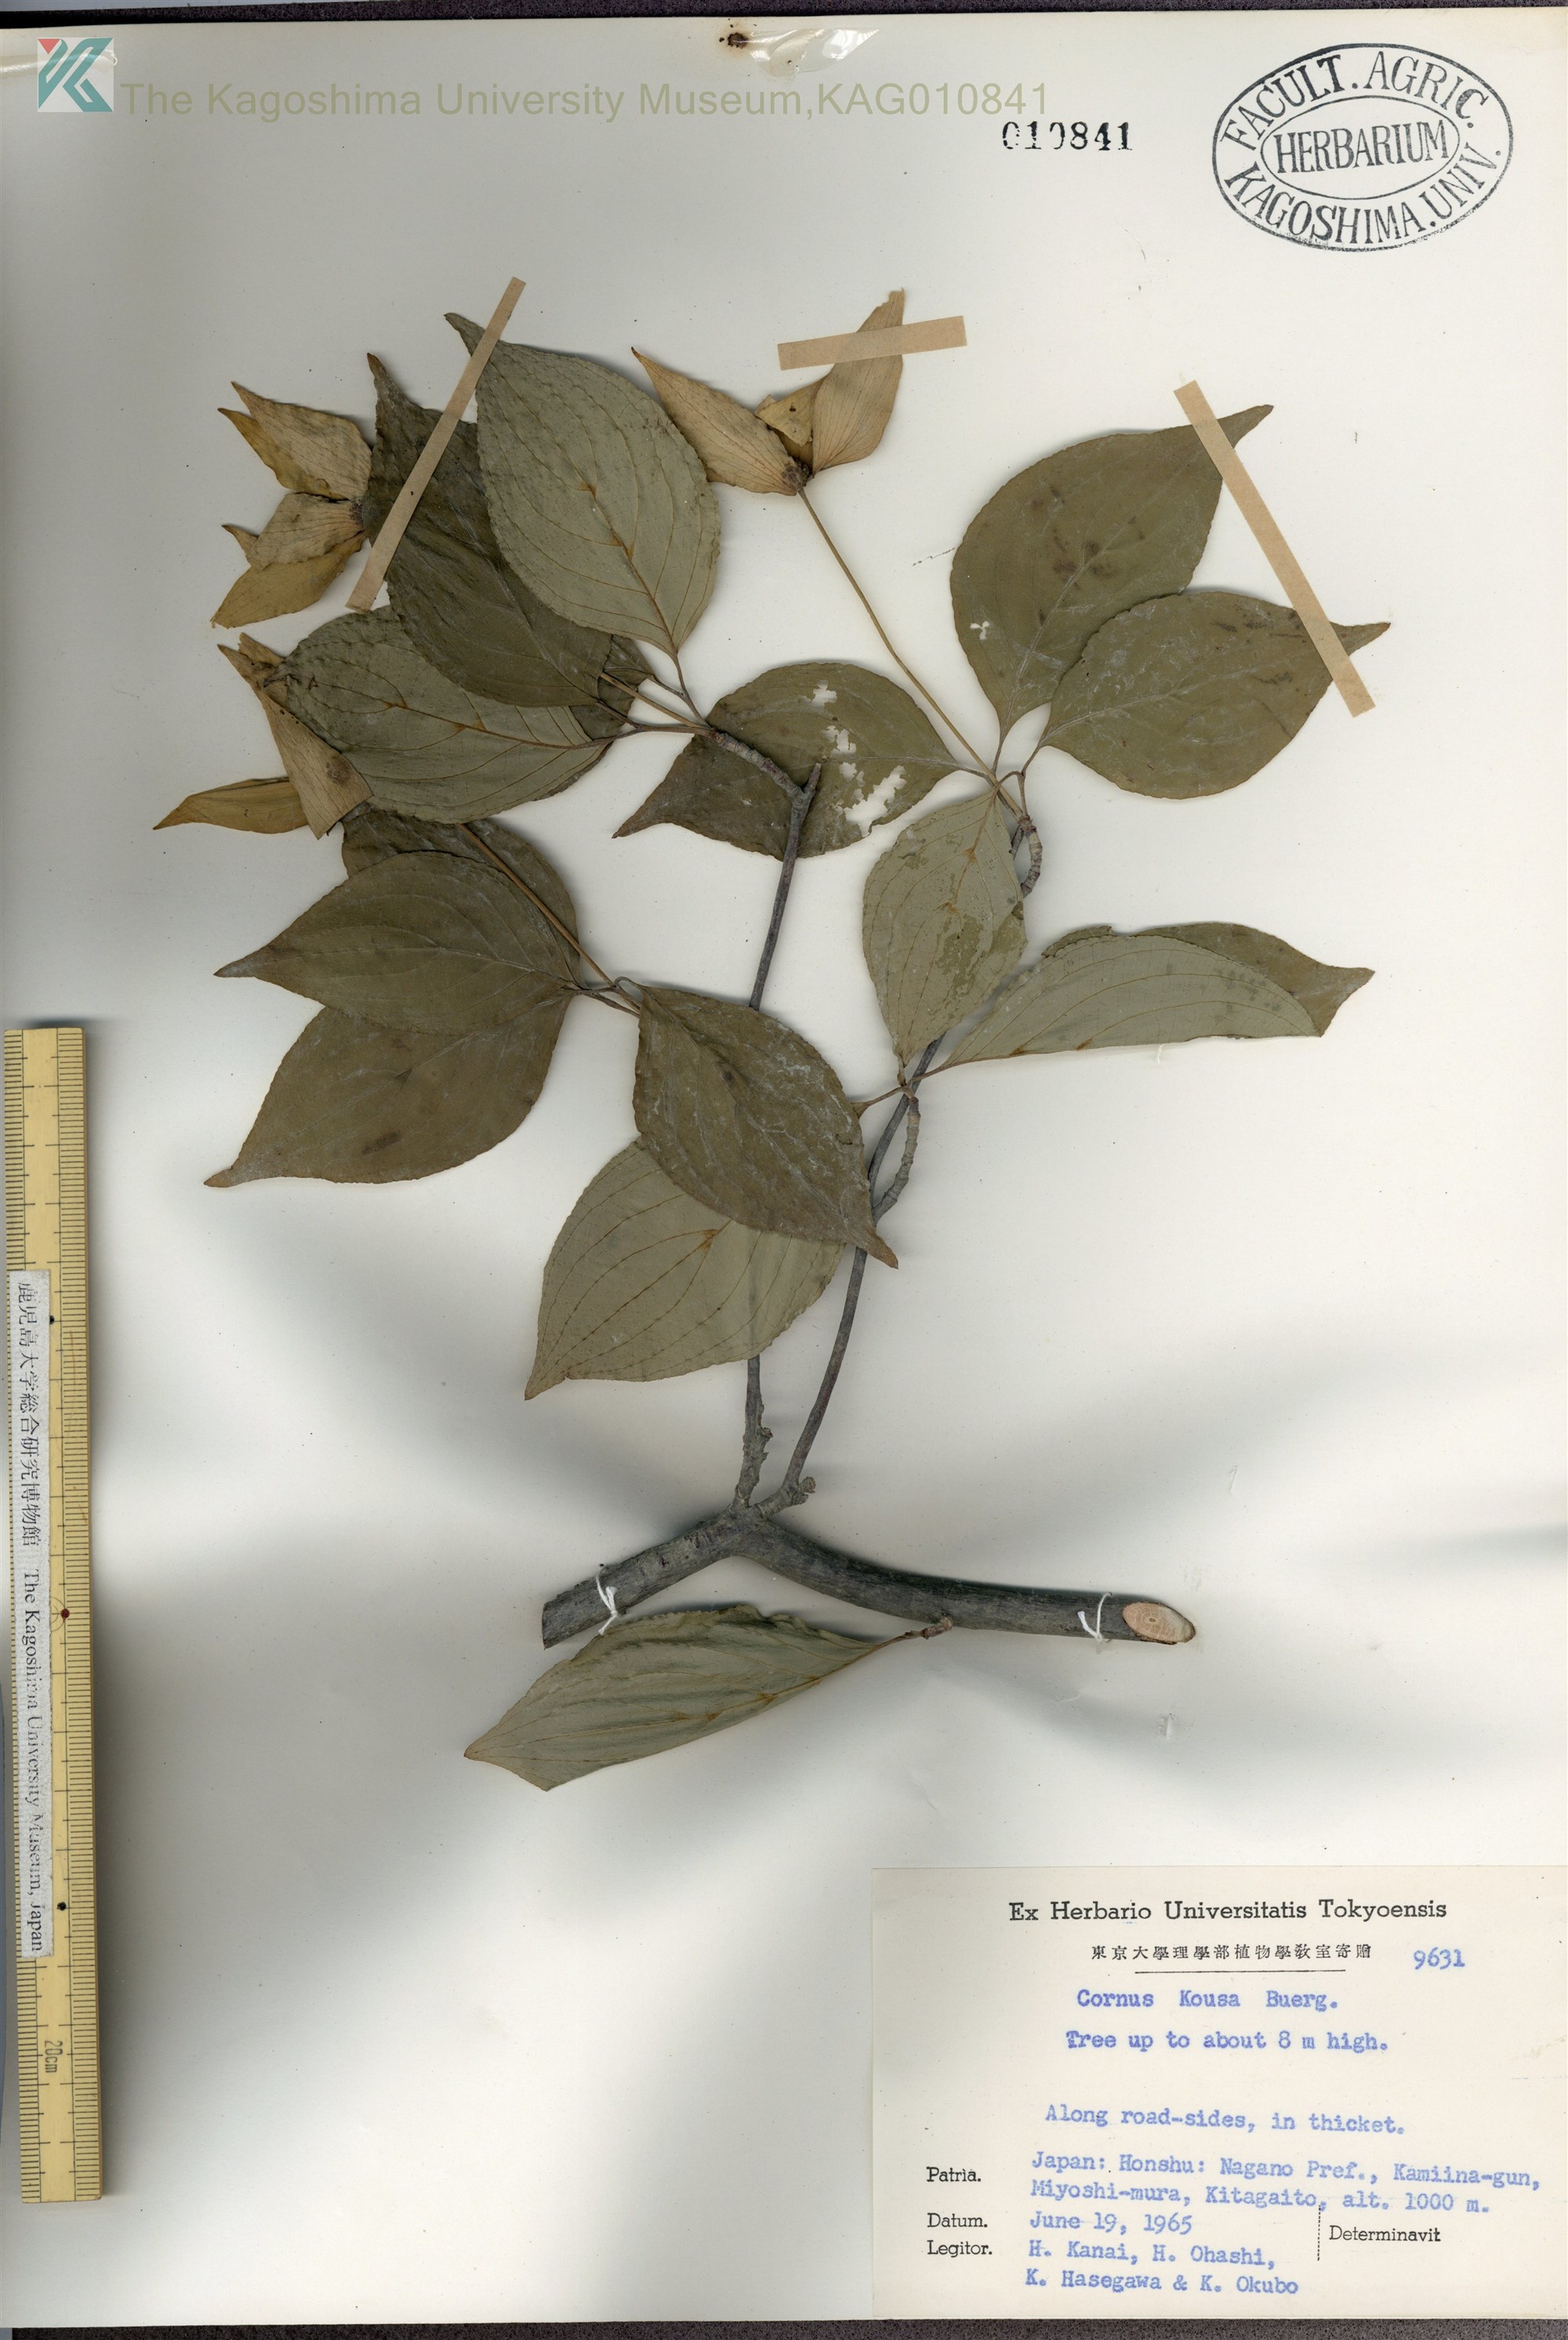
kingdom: Plantae
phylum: Tracheophyta
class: Magnoliopsida
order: Cornales
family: Cornaceae
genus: Cornus
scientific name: Cornus kousa
